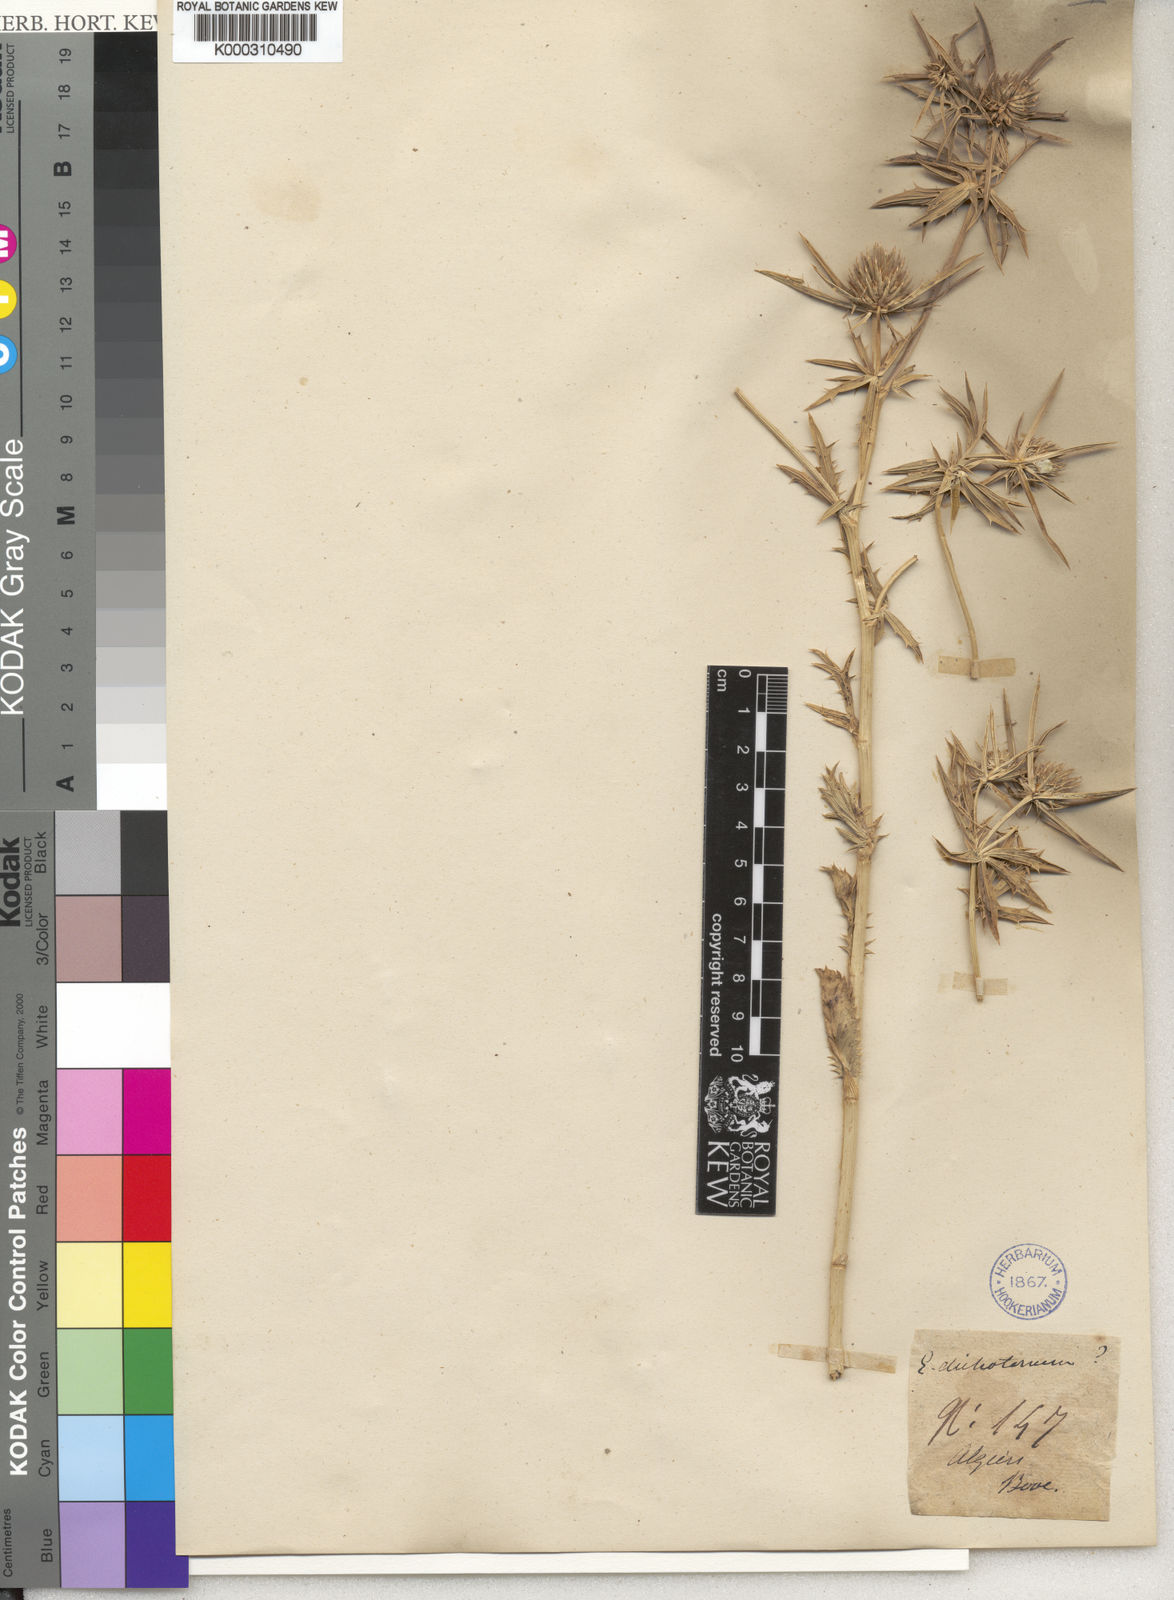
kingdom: Plantae
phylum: Tracheophyta
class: Magnoliopsida
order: Apiales
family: Apiaceae
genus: Eryngium
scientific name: Eryngium dichotomum
